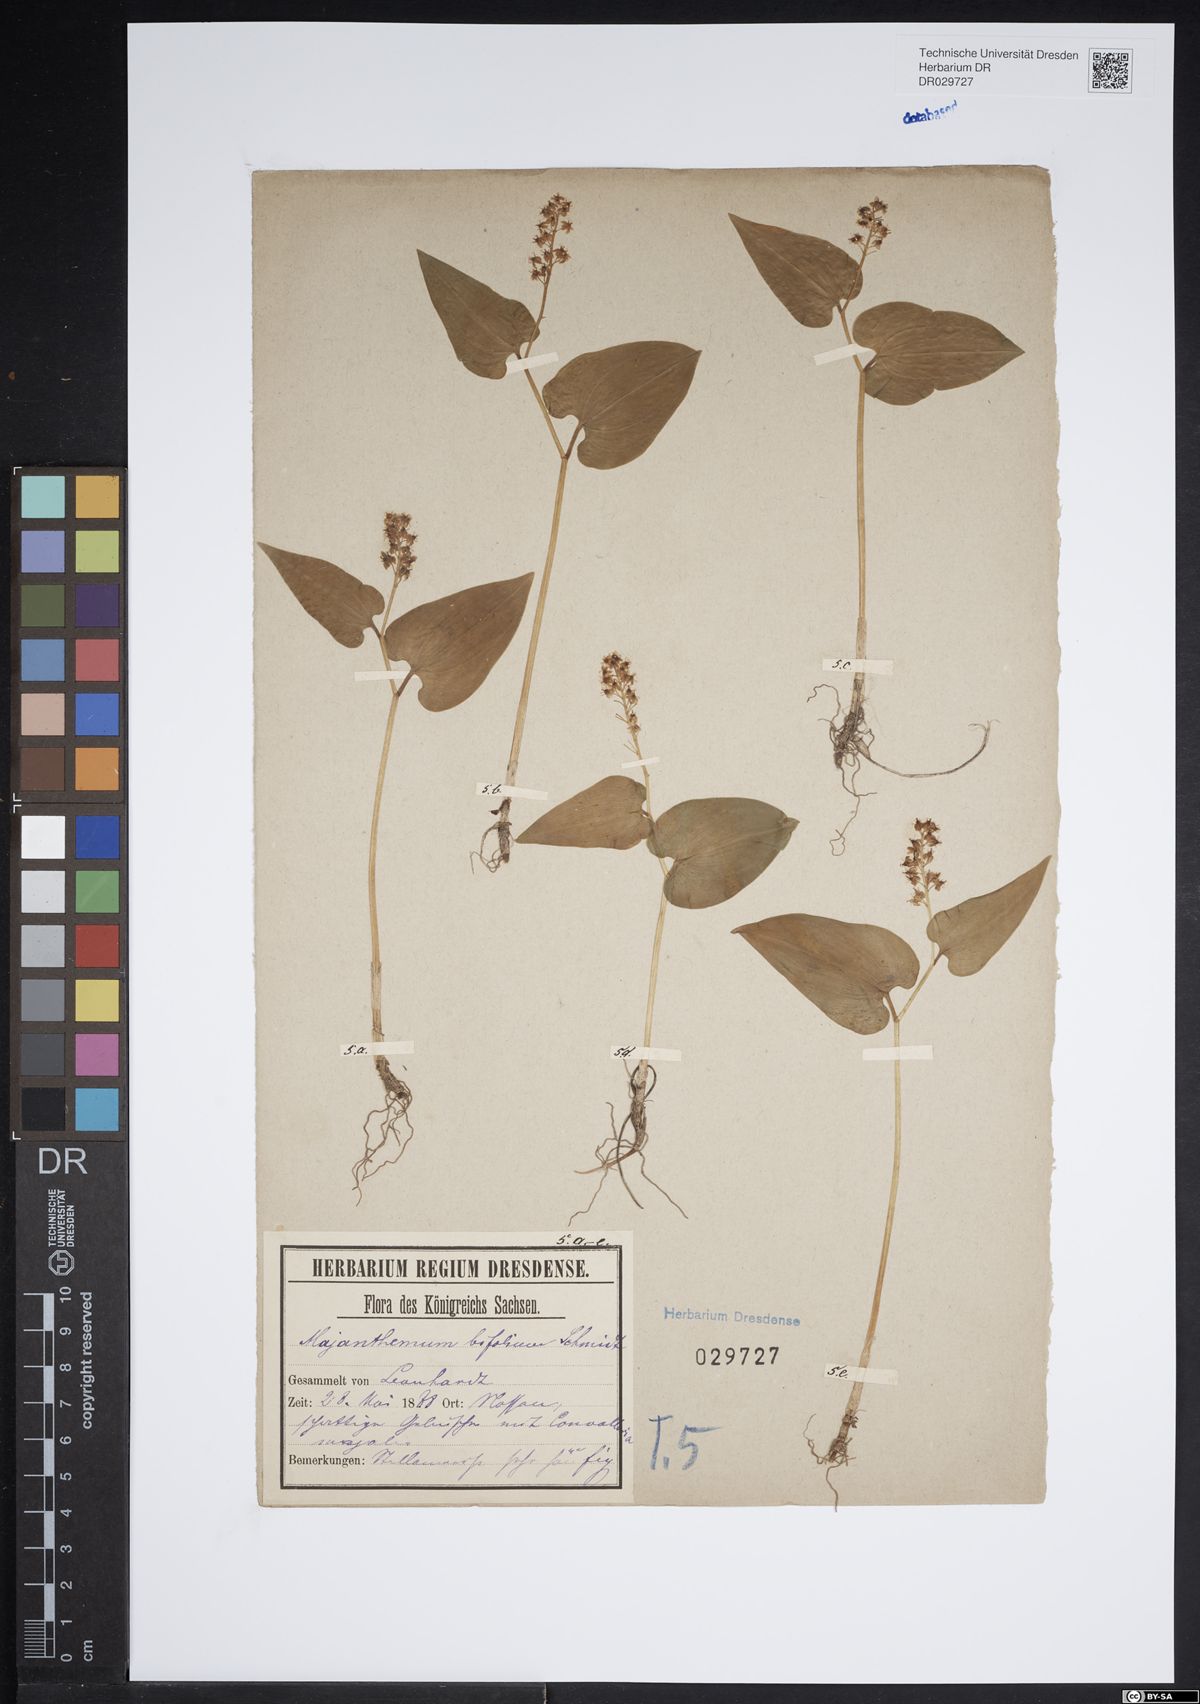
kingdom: Plantae
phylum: Tracheophyta
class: Liliopsida
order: Asparagales
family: Asparagaceae
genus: Maianthemum
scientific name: Maianthemum bifolium
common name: May lily
